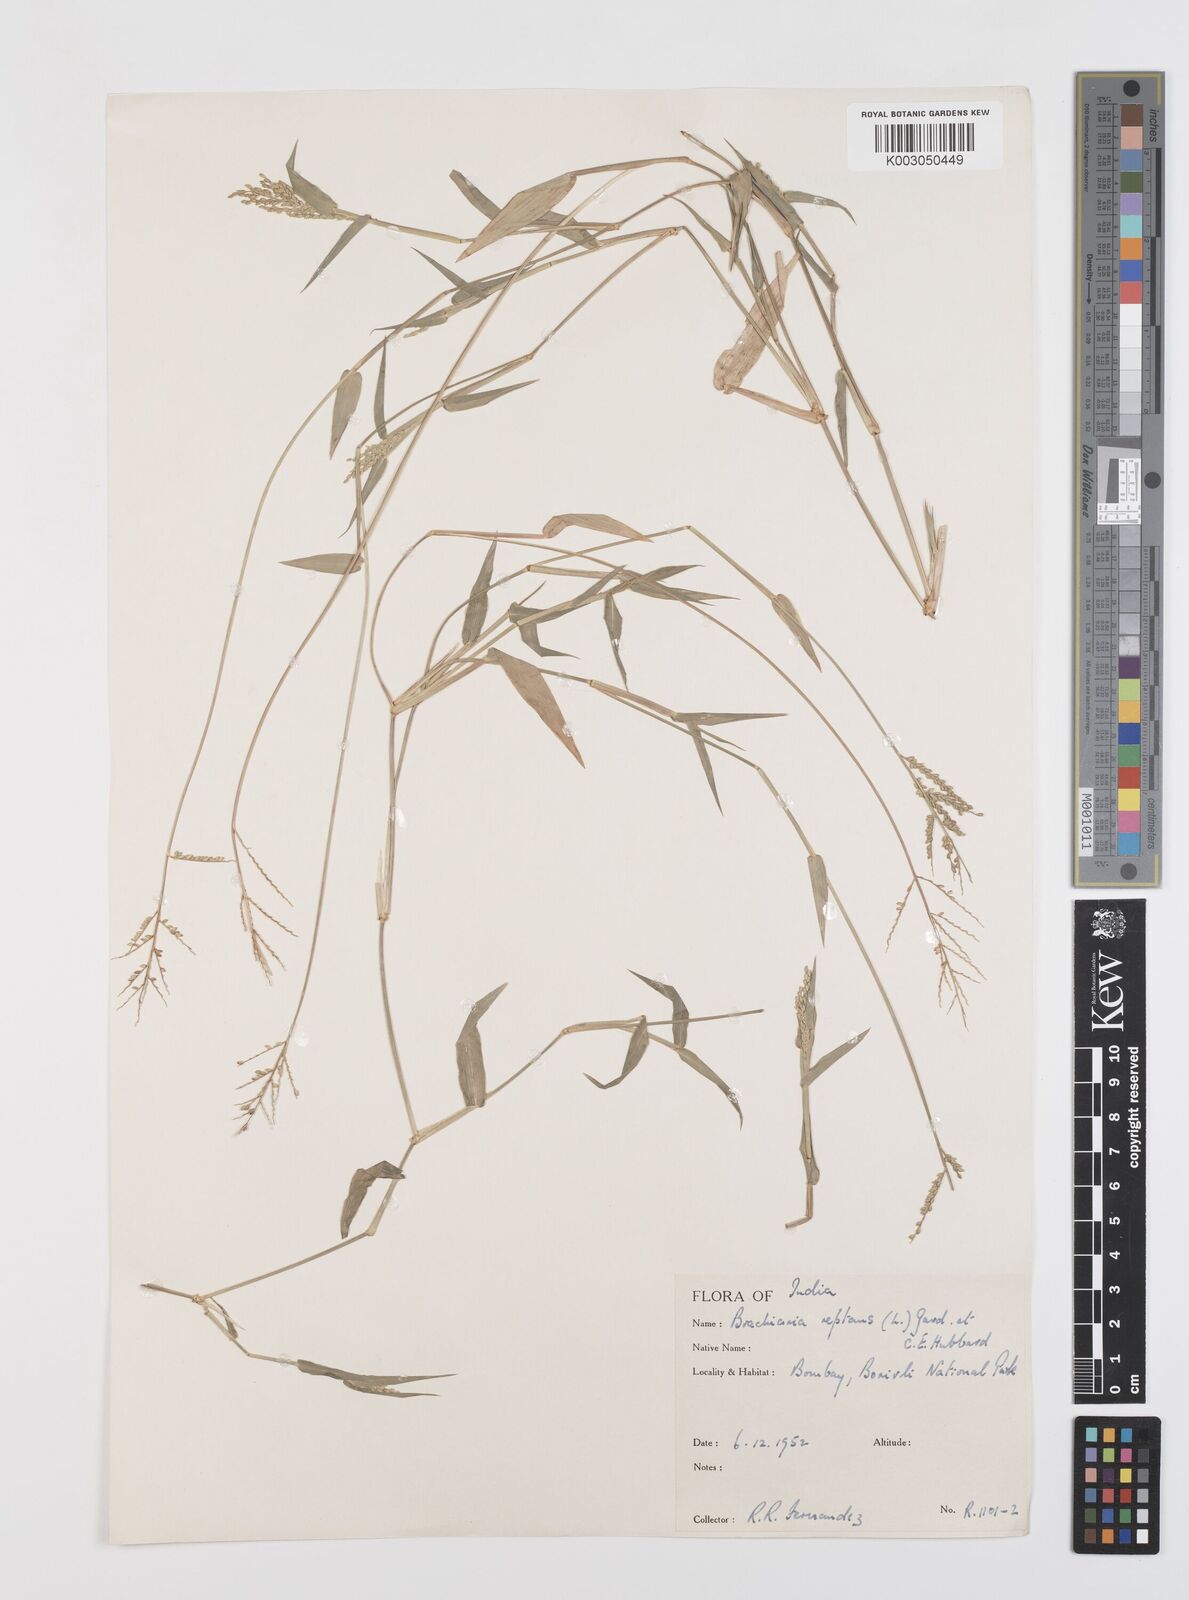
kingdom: Plantae
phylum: Tracheophyta
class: Liliopsida
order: Poales
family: Poaceae
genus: Urochloa
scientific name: Urochloa reptans
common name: Sprawling signalgrass
